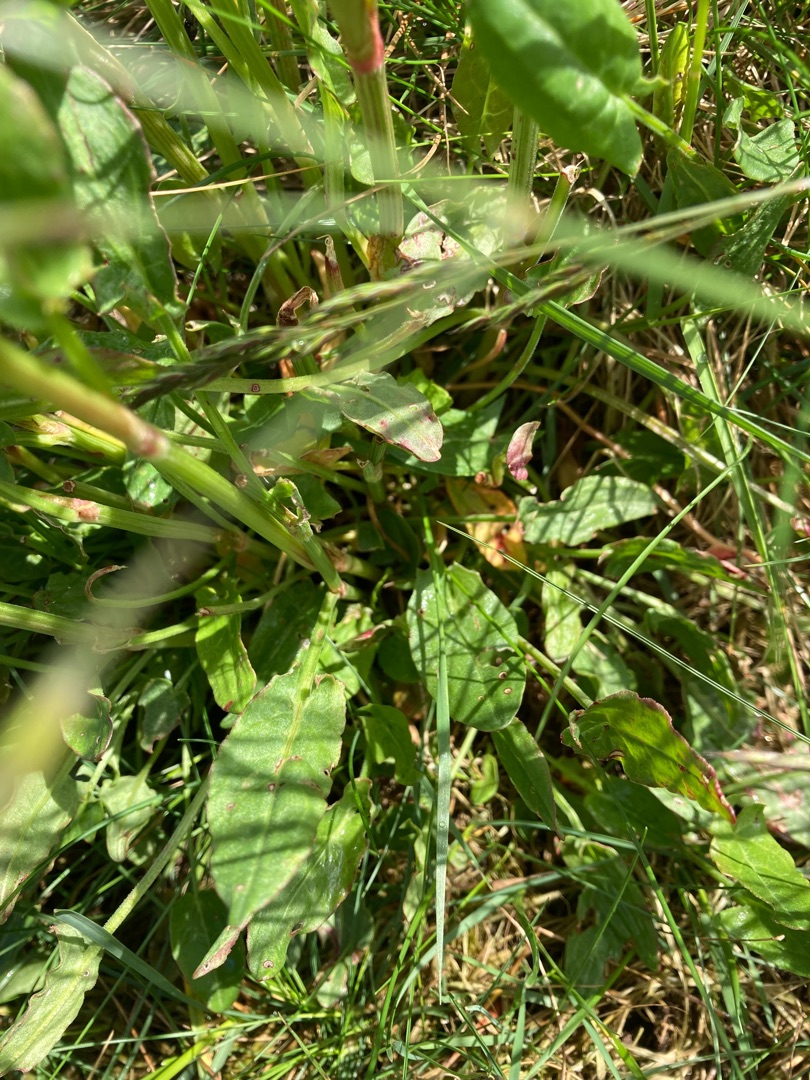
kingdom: Plantae
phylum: Tracheophyta
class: Magnoliopsida
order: Caryophyllales
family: Polygonaceae
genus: Rumex
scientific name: Rumex acetosa
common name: Almindelig syre
